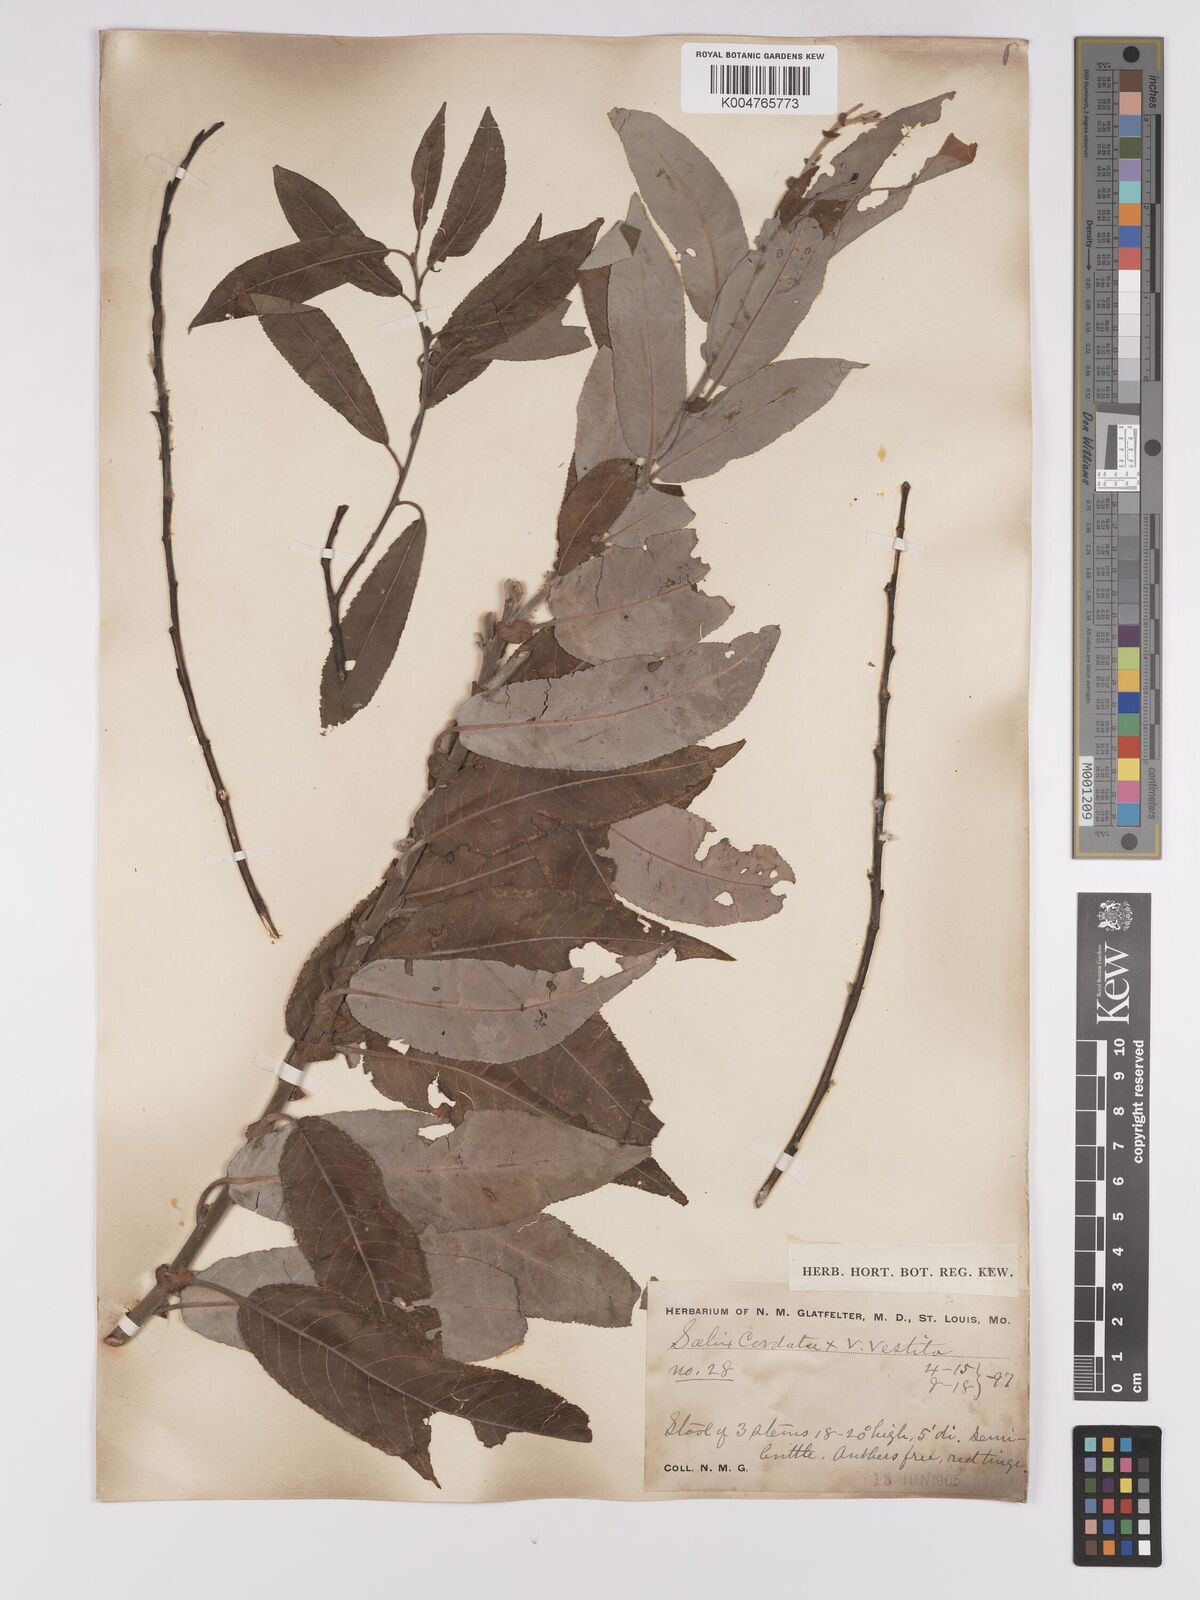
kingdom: Plantae
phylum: Tracheophyta
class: Magnoliopsida
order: Malpighiales
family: Salicaceae
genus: Salix
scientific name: Salix cordata
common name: Heart-leaf willow
